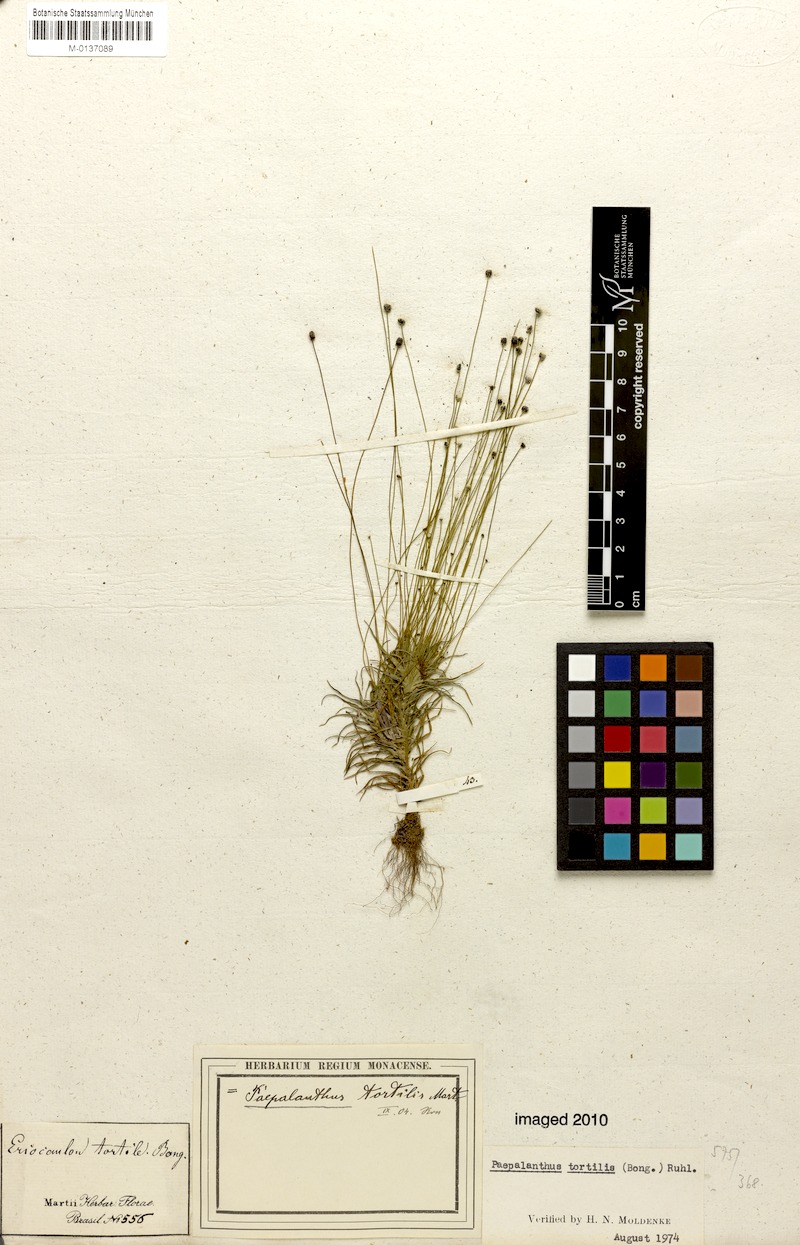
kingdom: Plantae
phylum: Tracheophyta
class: Liliopsida
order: Poales
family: Eriocaulaceae
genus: Paepalanthus
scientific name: Paepalanthus tortilis
